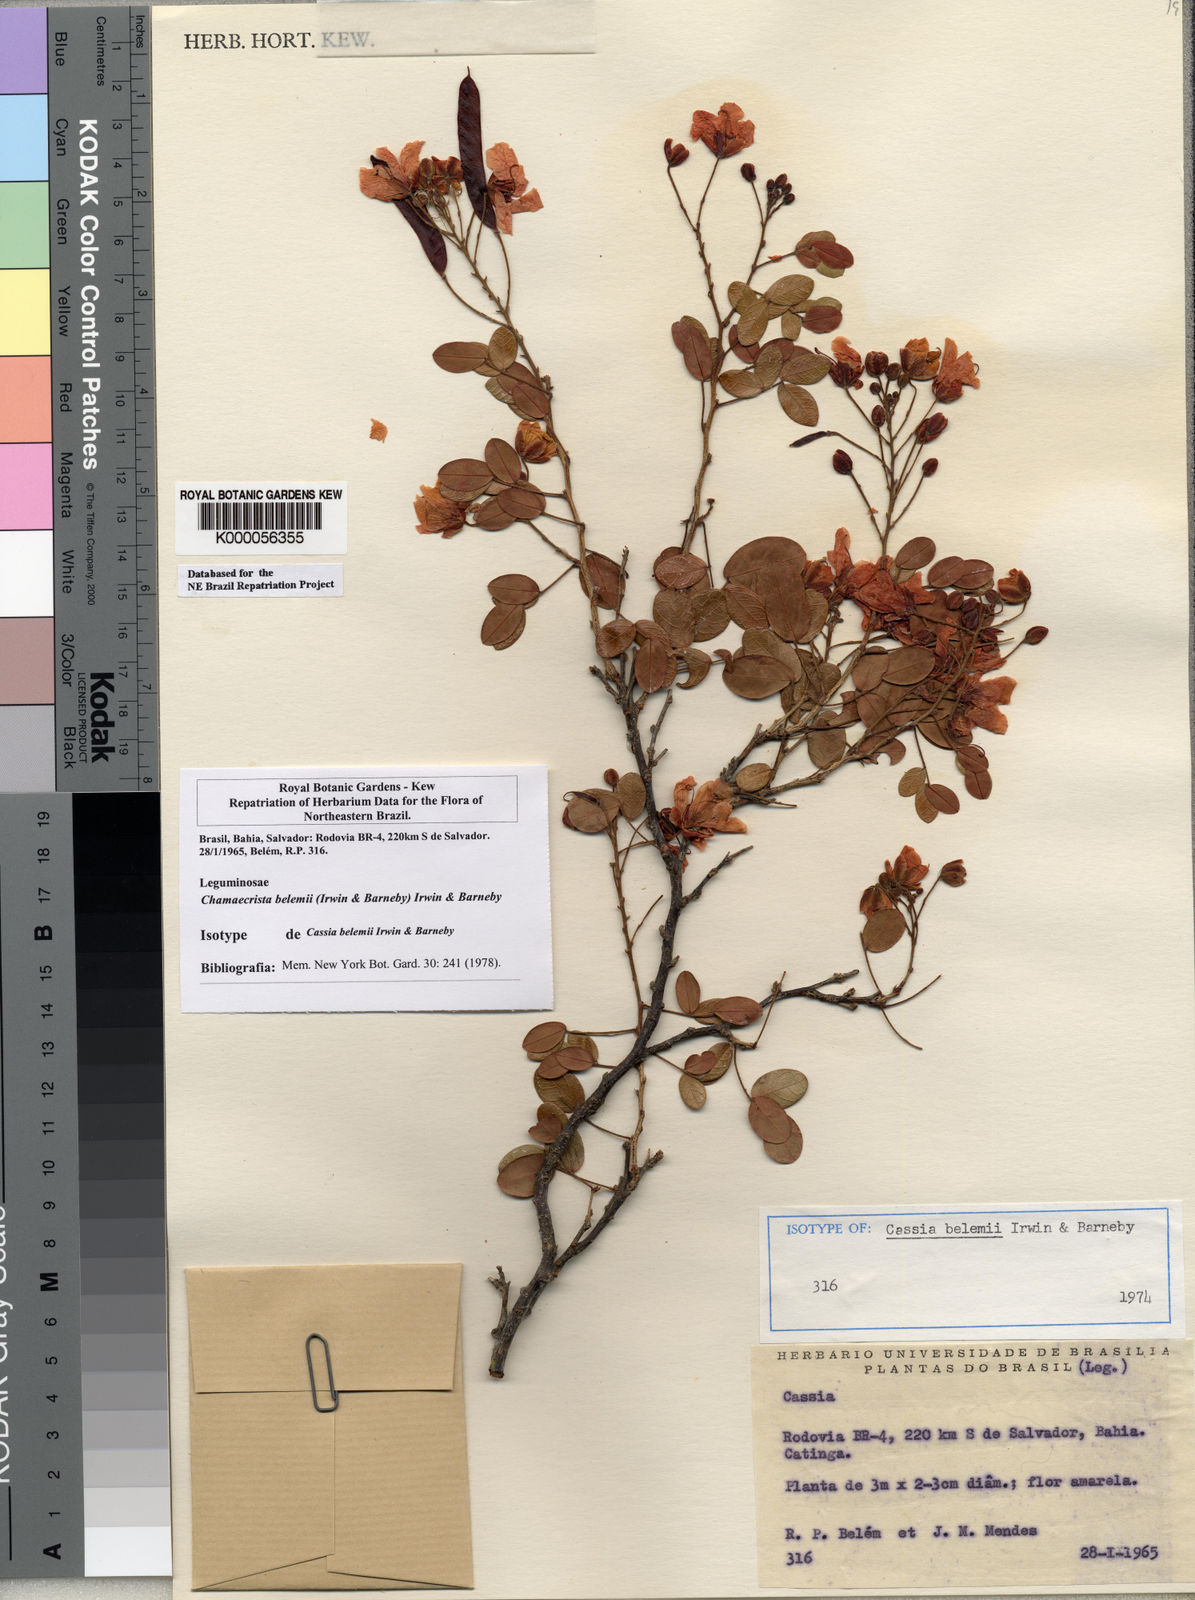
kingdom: Plantae
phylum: Tracheophyta
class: Magnoliopsida
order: Fabales
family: Fabaceae
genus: Chamaecrista
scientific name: Chamaecrista belemii
